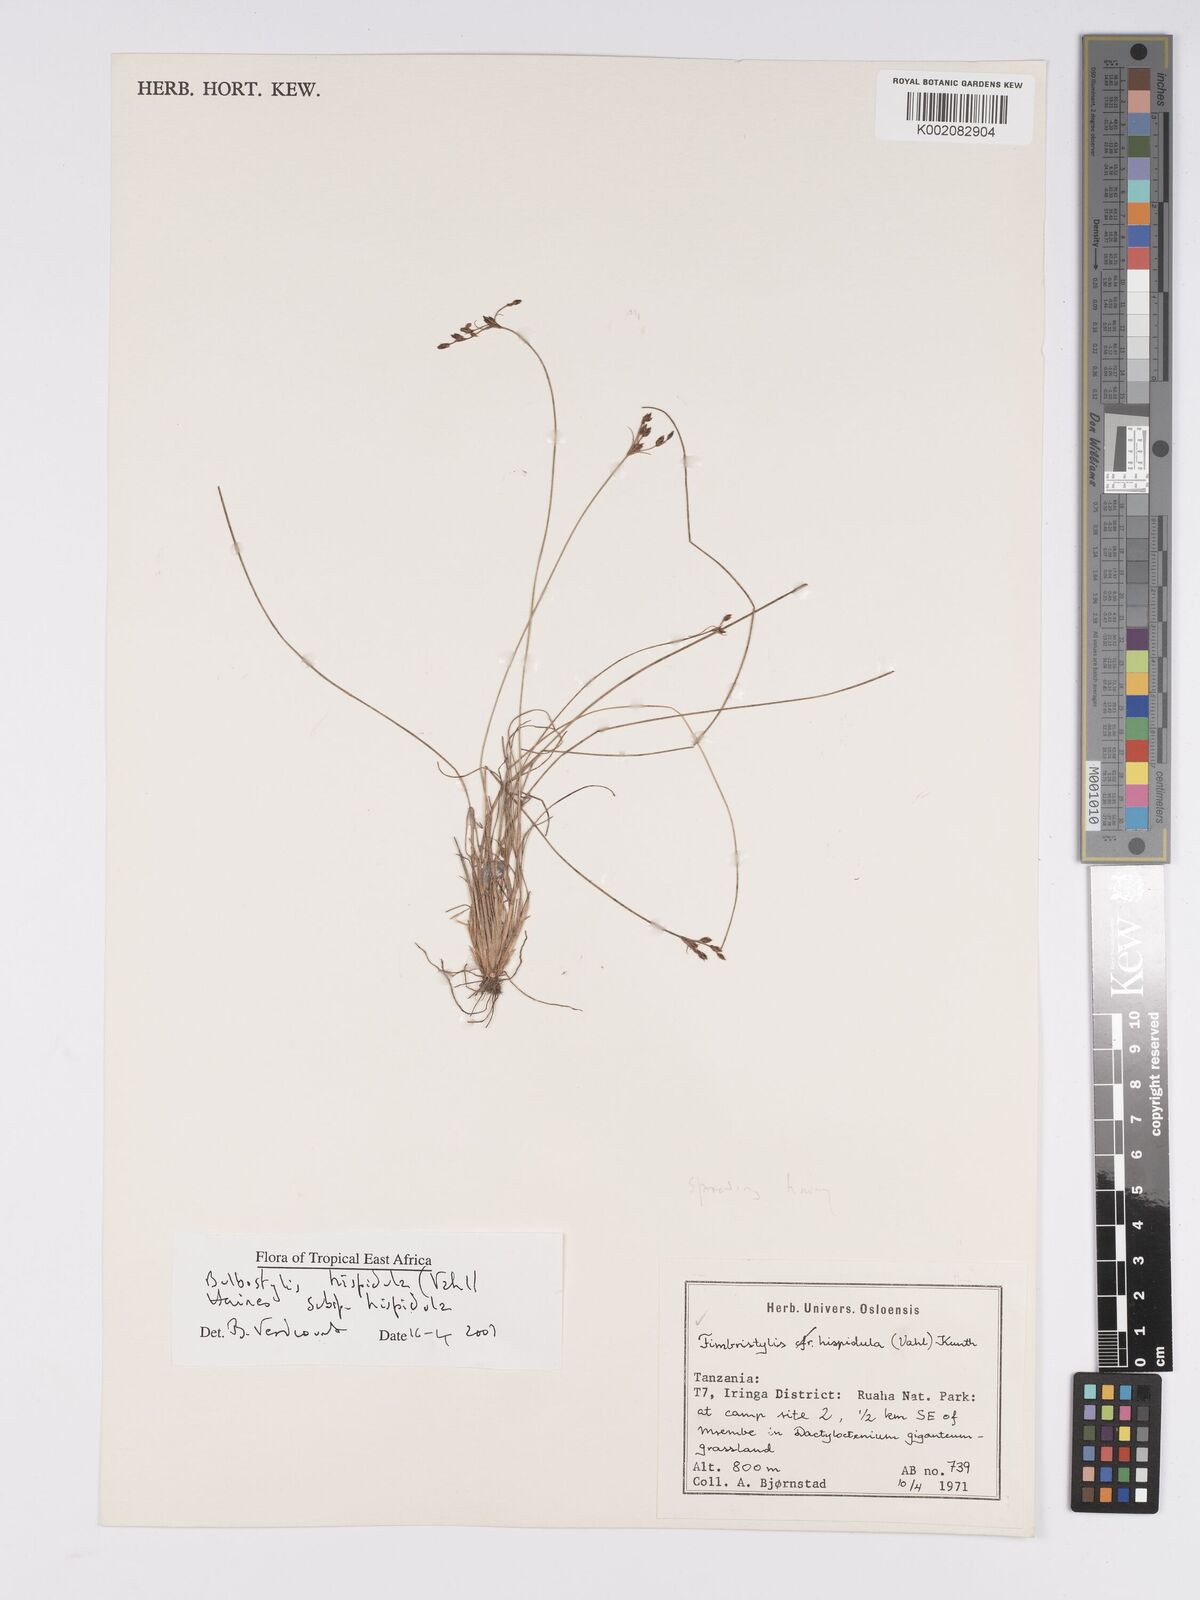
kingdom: Plantae
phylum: Tracheophyta
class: Liliopsida
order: Poales
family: Cyperaceae
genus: Bulbostylis
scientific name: Bulbostylis hispidula
